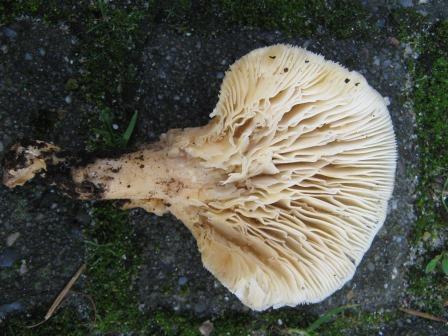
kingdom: Fungi
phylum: Basidiomycota
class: Agaricomycetes
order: Agaricales
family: Pleurotaceae
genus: Pleurotus
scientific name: Pleurotus dryinus
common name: korkagtig østershat
